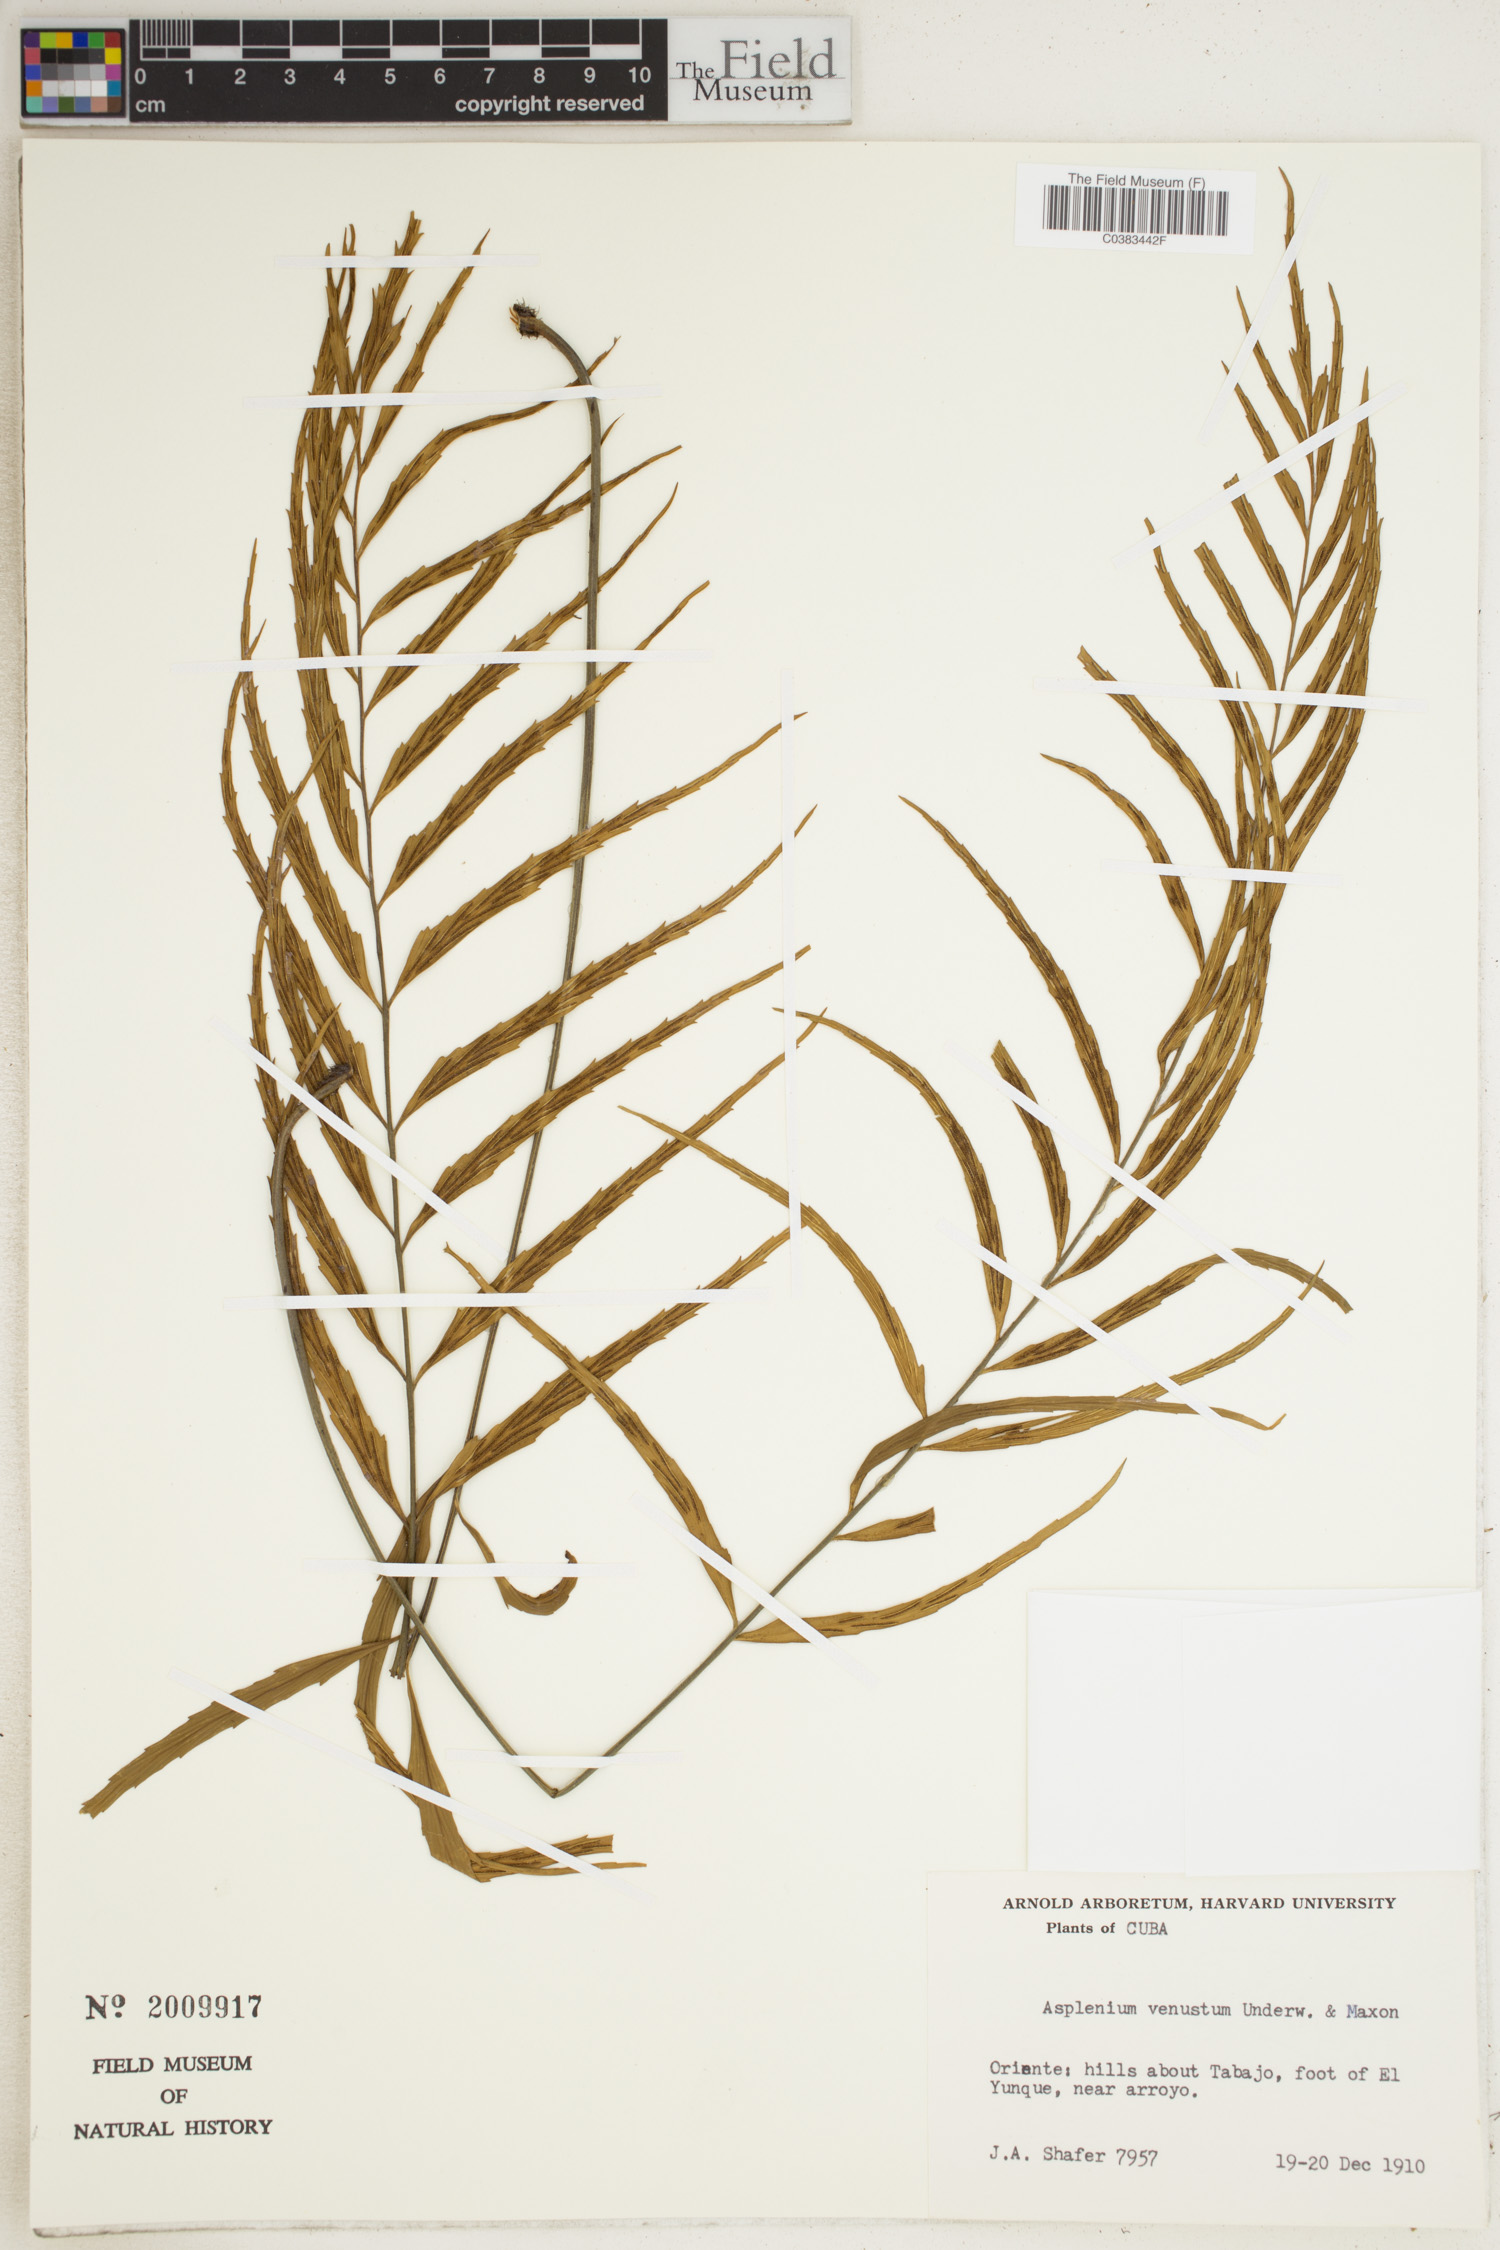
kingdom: Plantae
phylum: Tracheophyta
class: Polypodiopsida
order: Polypodiales
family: Aspleniaceae
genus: Asplenium
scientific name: Asplenium venustum
